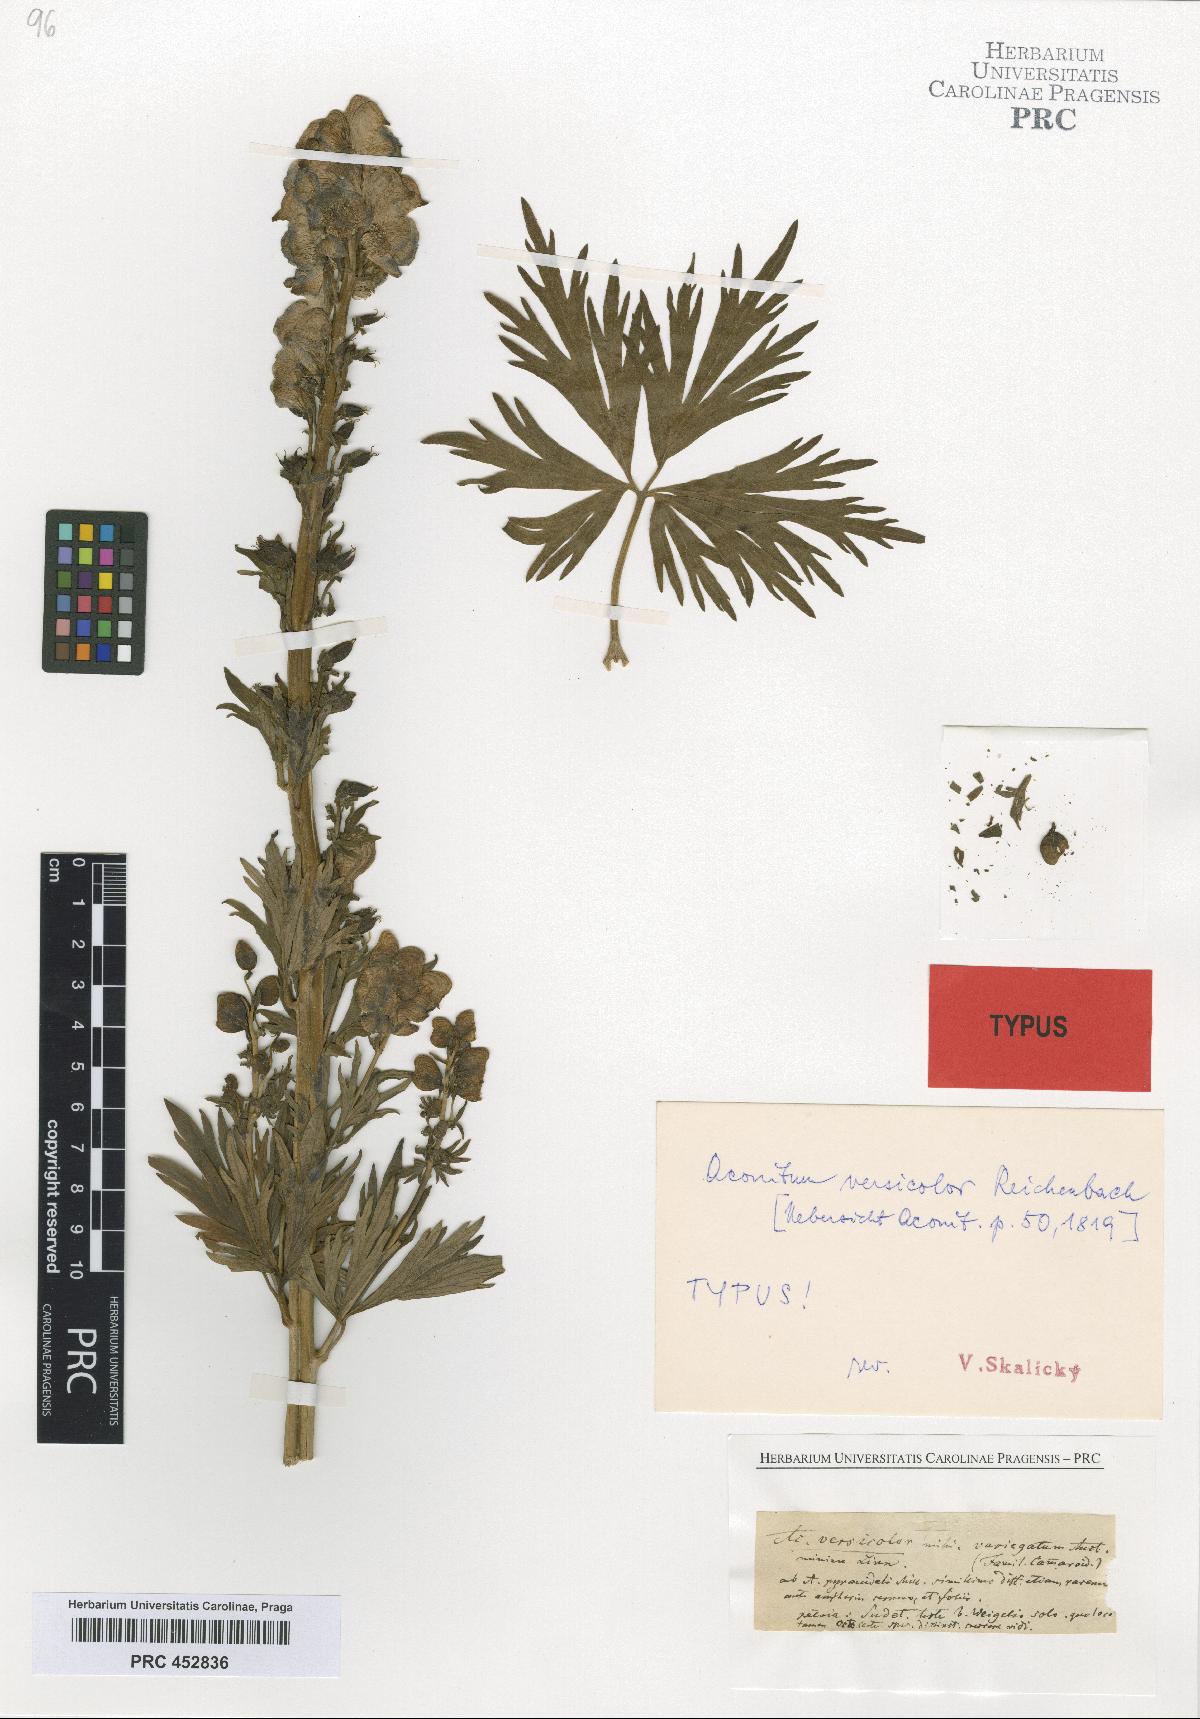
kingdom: Plantae
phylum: Tracheophyta
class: Magnoliopsida
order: Ranunculales
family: Ranunculaceae
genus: Aconitum
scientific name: Aconitum degenii
